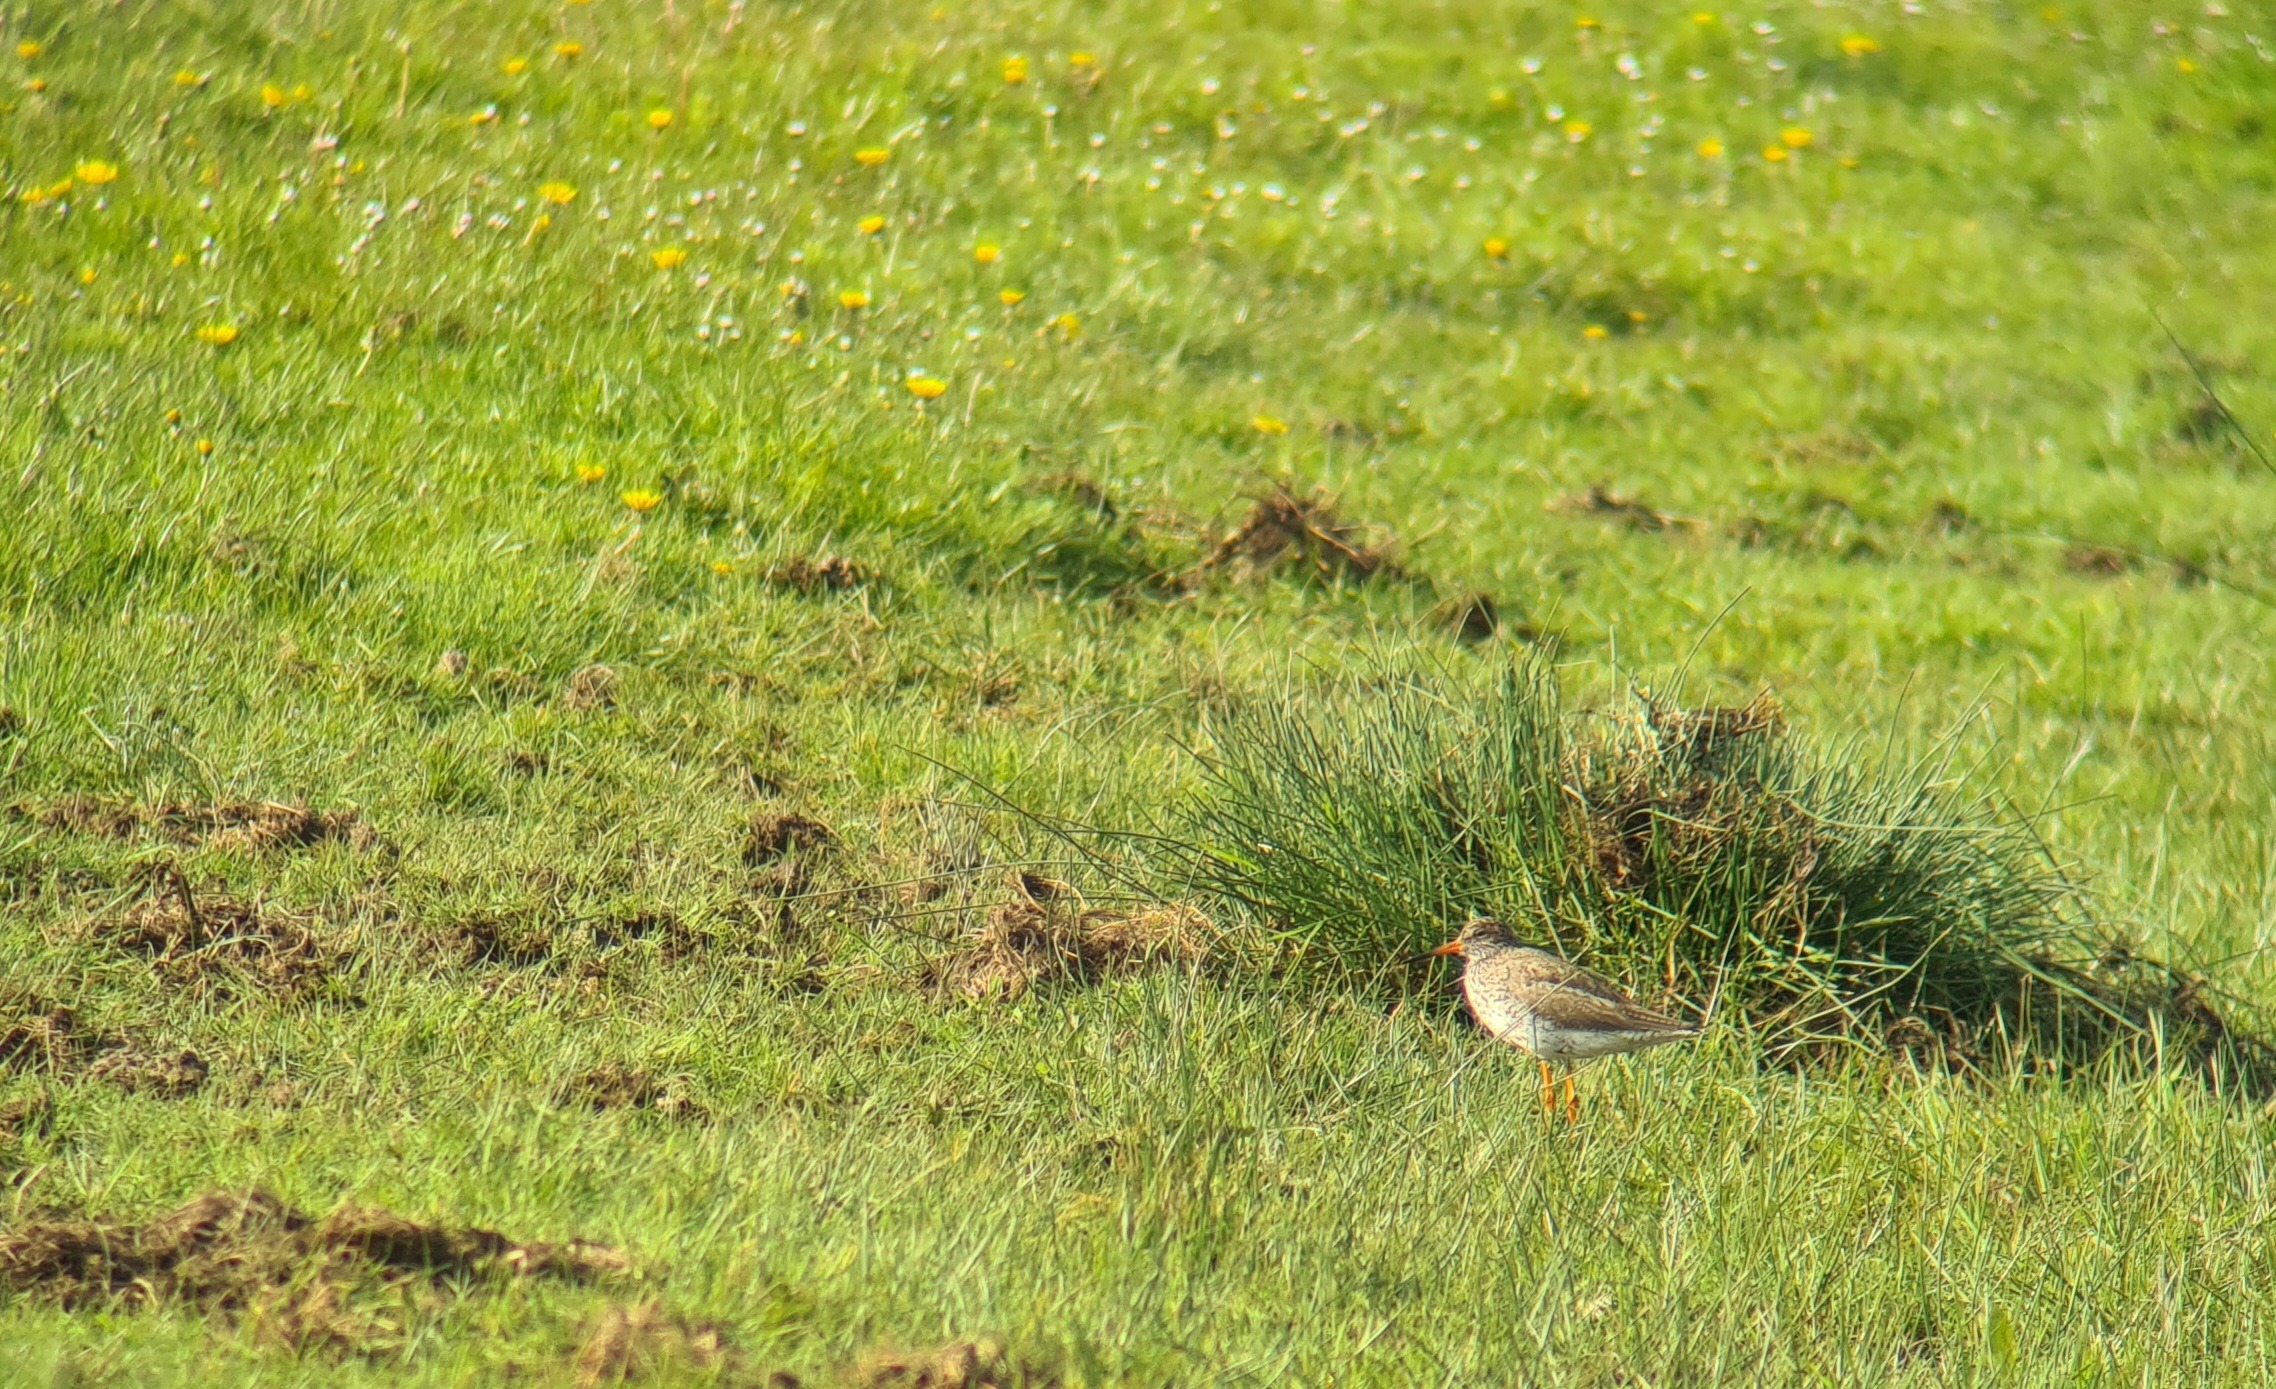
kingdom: Animalia
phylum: Chordata
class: Aves
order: Charadriiformes
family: Scolopacidae
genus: Tringa
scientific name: Tringa totanus
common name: Rødben
